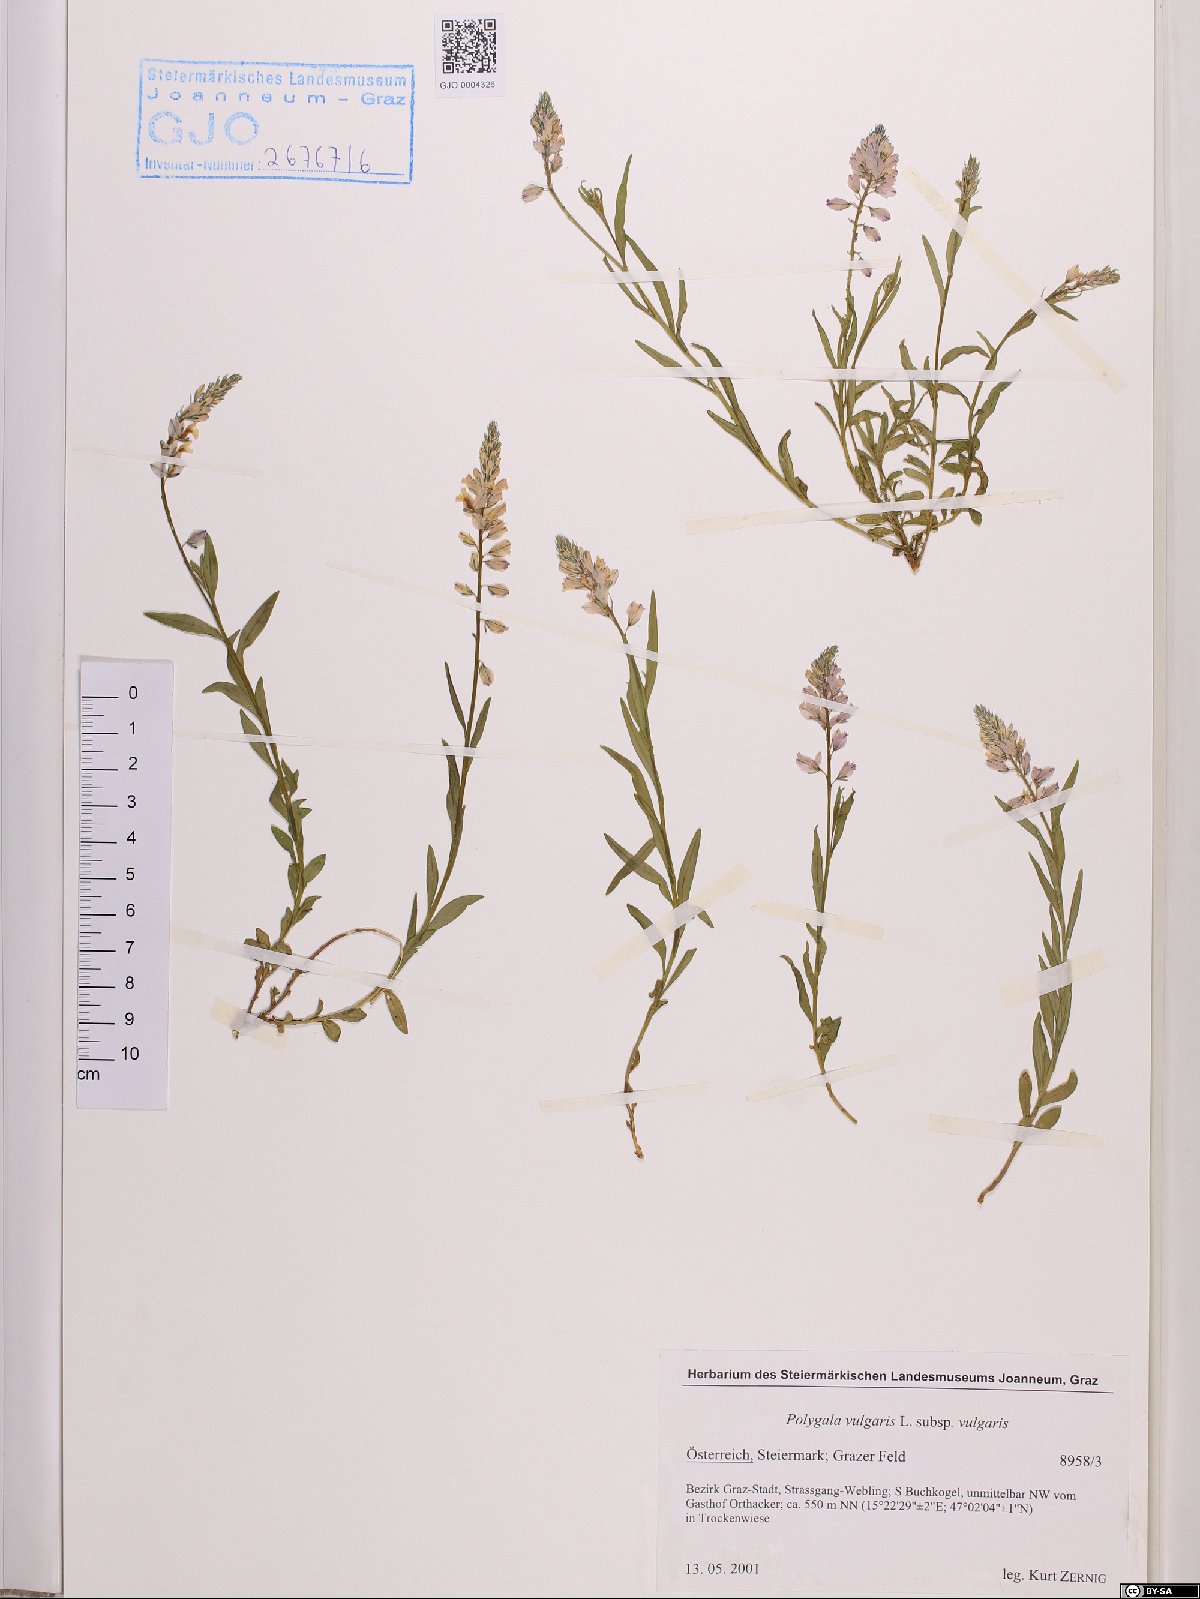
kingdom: Plantae
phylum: Tracheophyta
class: Magnoliopsida
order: Fabales
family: Polygalaceae
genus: Polygala
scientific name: Polygala vulgaris
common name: Common milkwort
